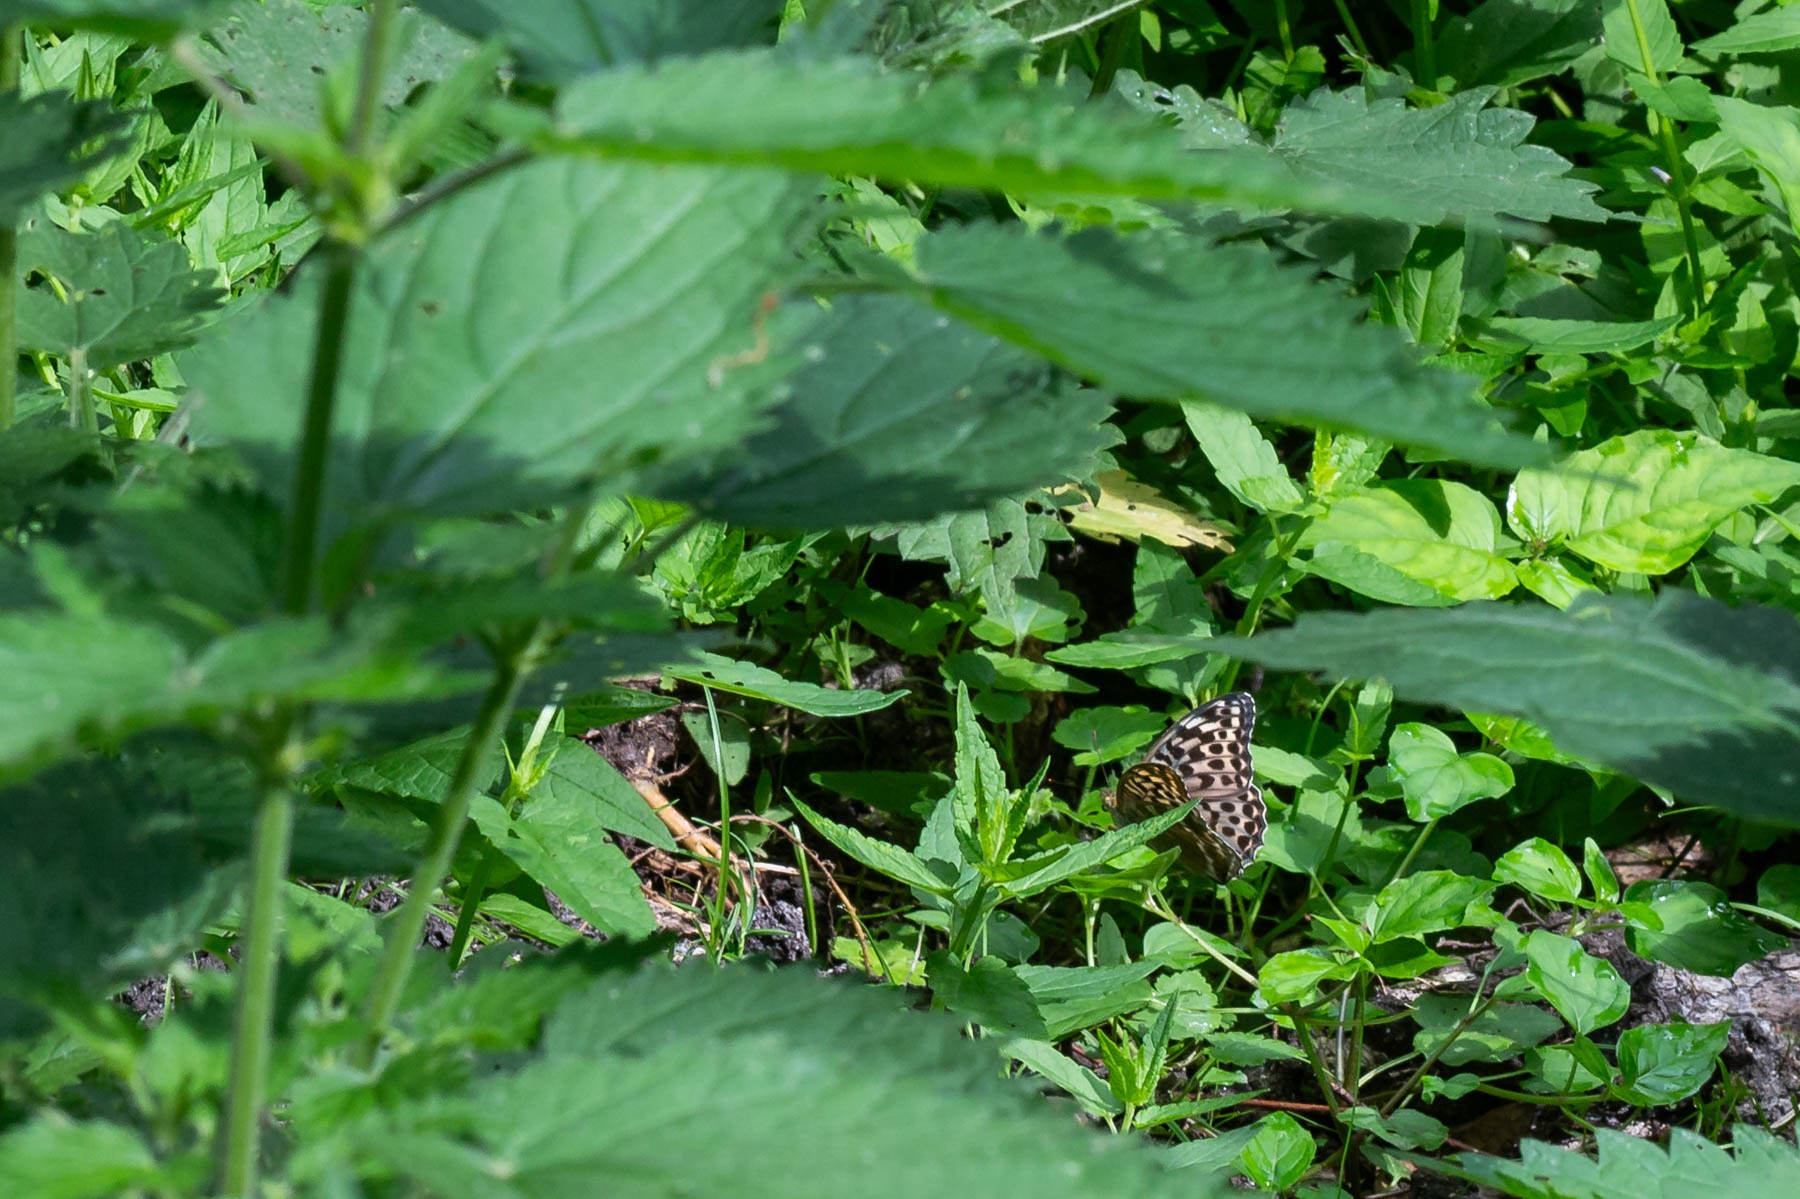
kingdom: Animalia
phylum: Arthropoda
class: Insecta
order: Lepidoptera
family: Nymphalidae
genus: Argynnis
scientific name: Argynnis paphia
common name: Kejserkåbe
